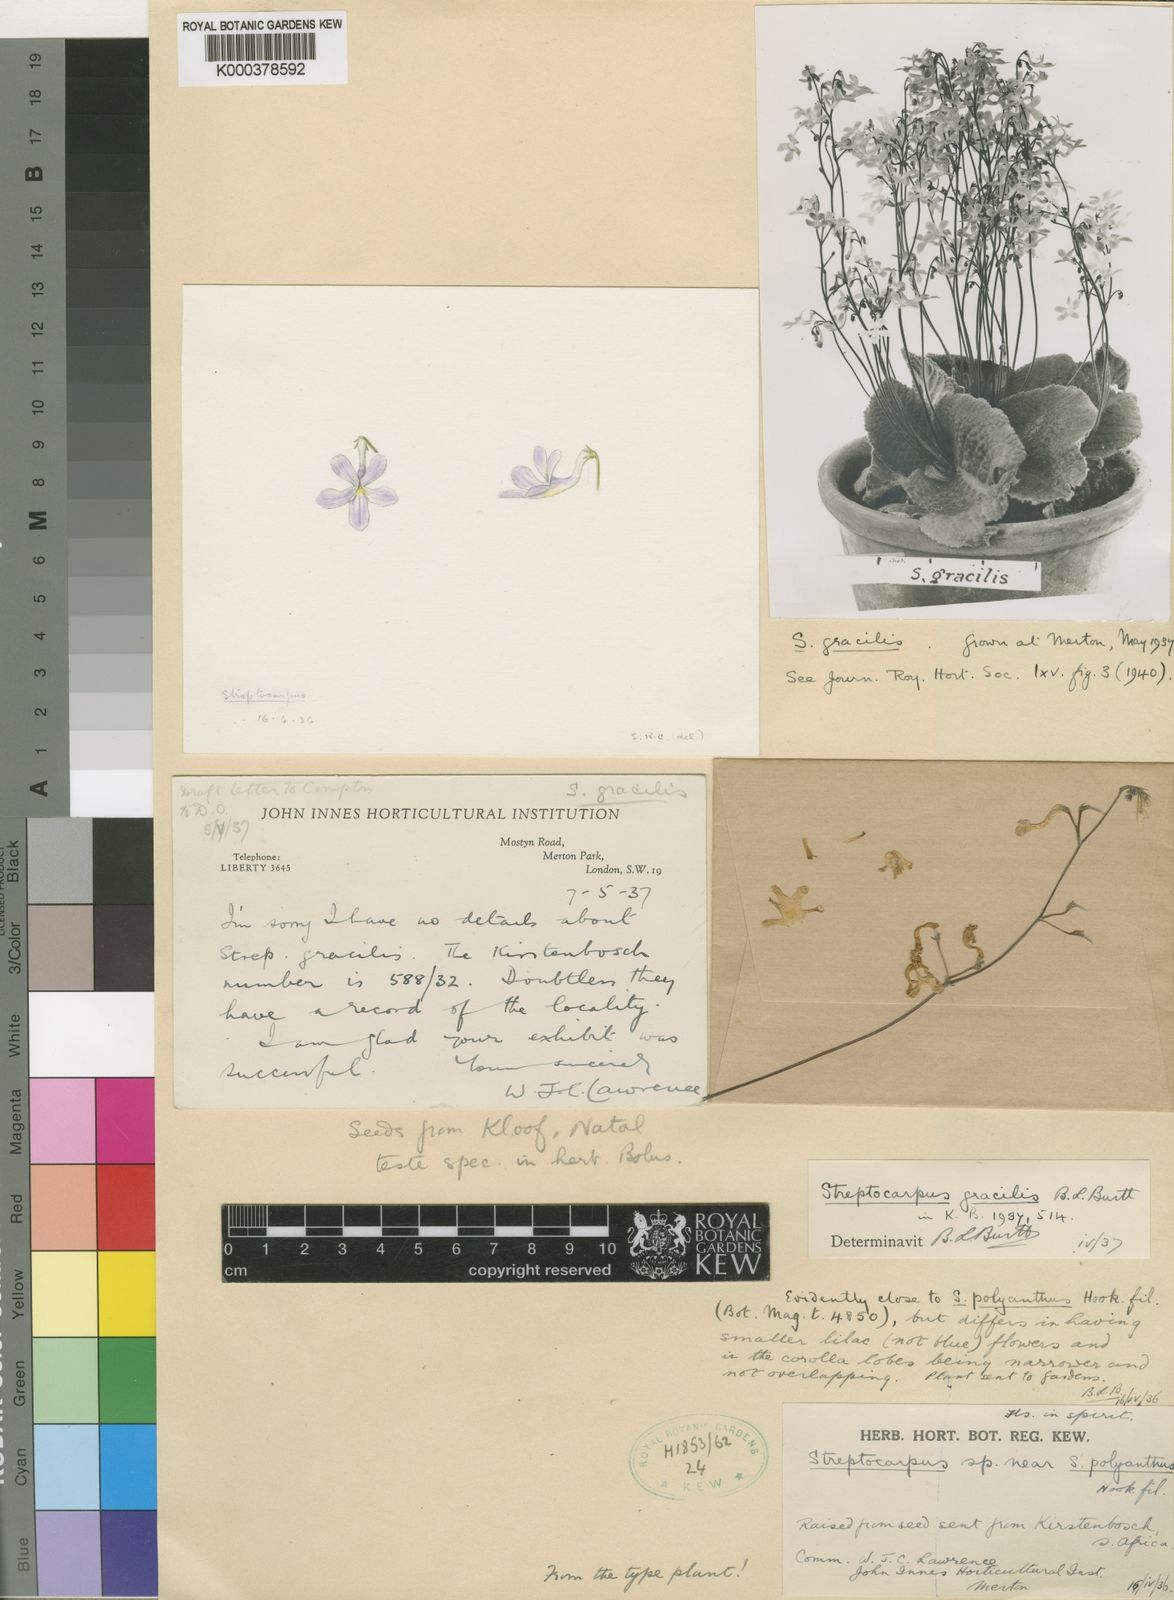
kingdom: Plantae
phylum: Tracheophyta
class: Magnoliopsida
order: Lamiales
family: Gesneriaceae
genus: Streptocarpus
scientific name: Streptocarpus prolixus
